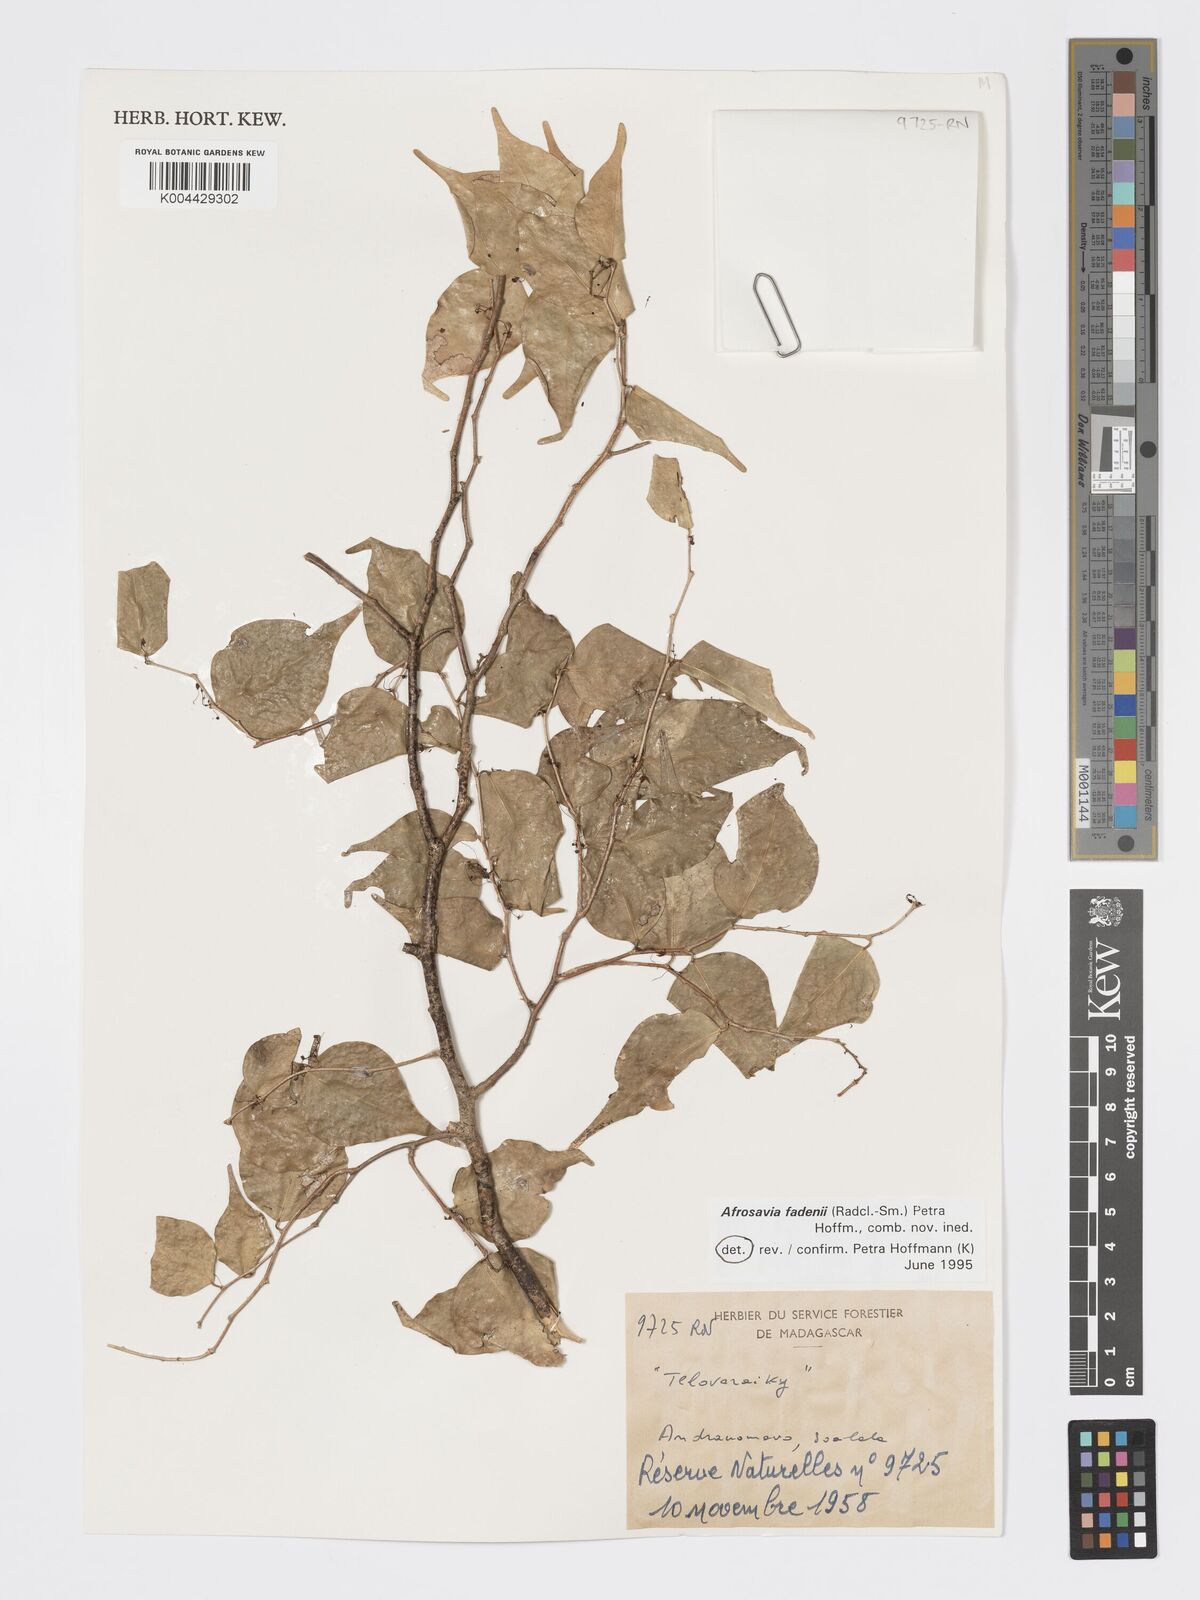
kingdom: Plantae
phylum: Tracheophyta
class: Magnoliopsida
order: Malpighiales
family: Phyllanthaceae
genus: Wielandia
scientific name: Wielandia fadenii
